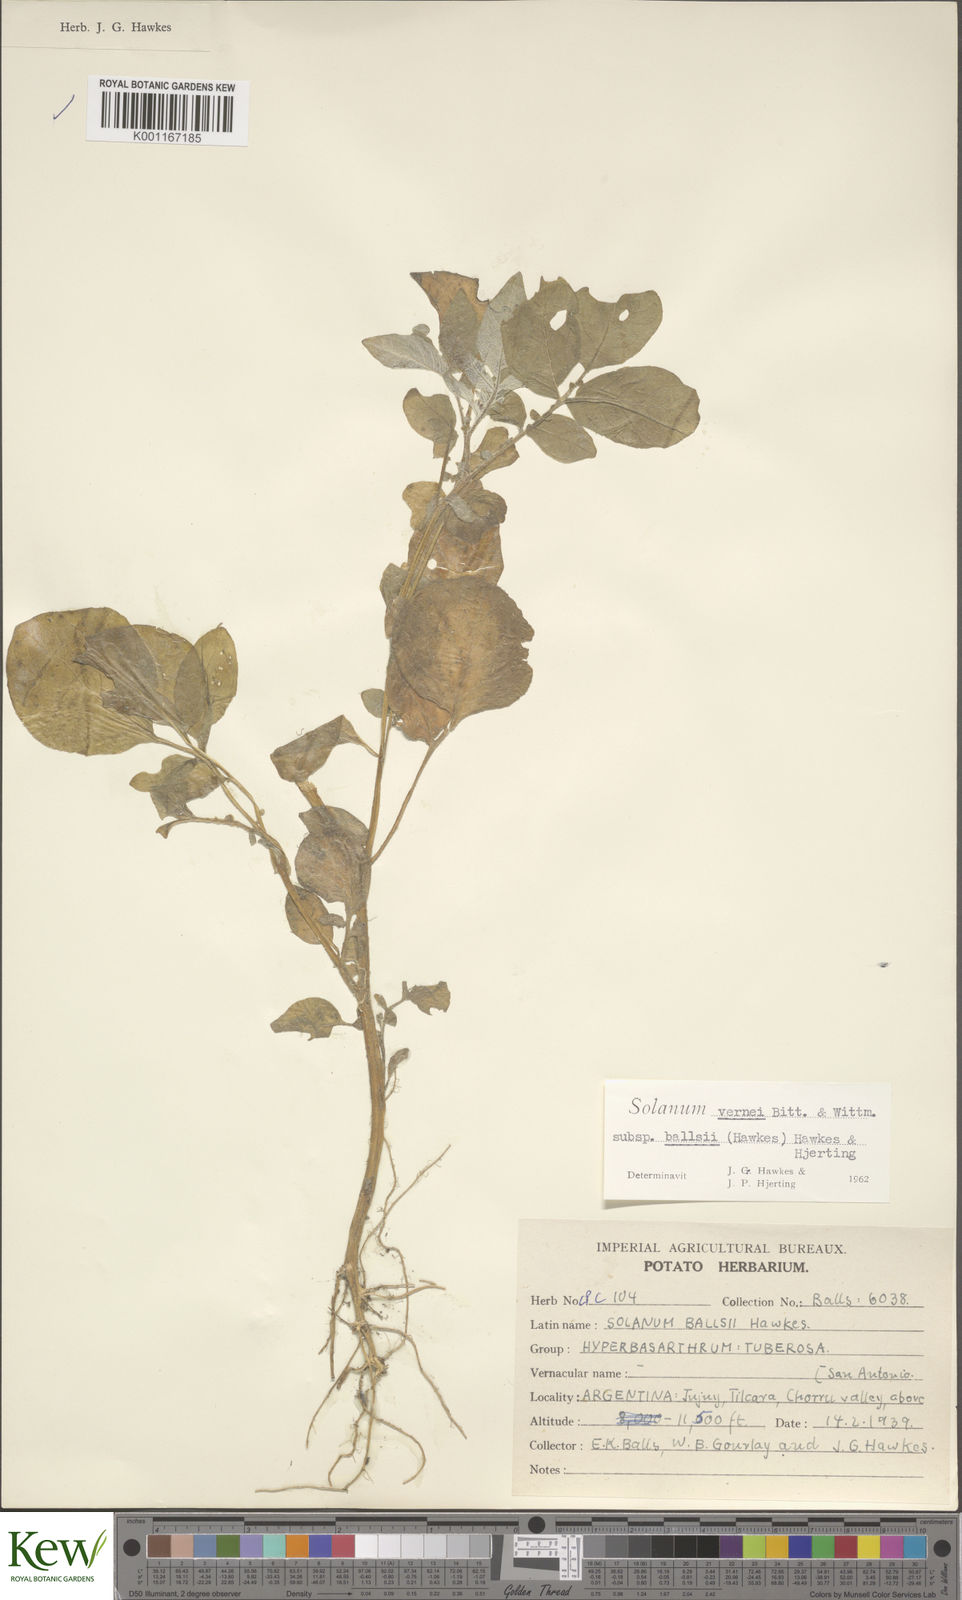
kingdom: Plantae
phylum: Tracheophyta
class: Magnoliopsida
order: Solanales
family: Solanaceae
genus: Solanum
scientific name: Solanum vernei
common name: Purple potato
